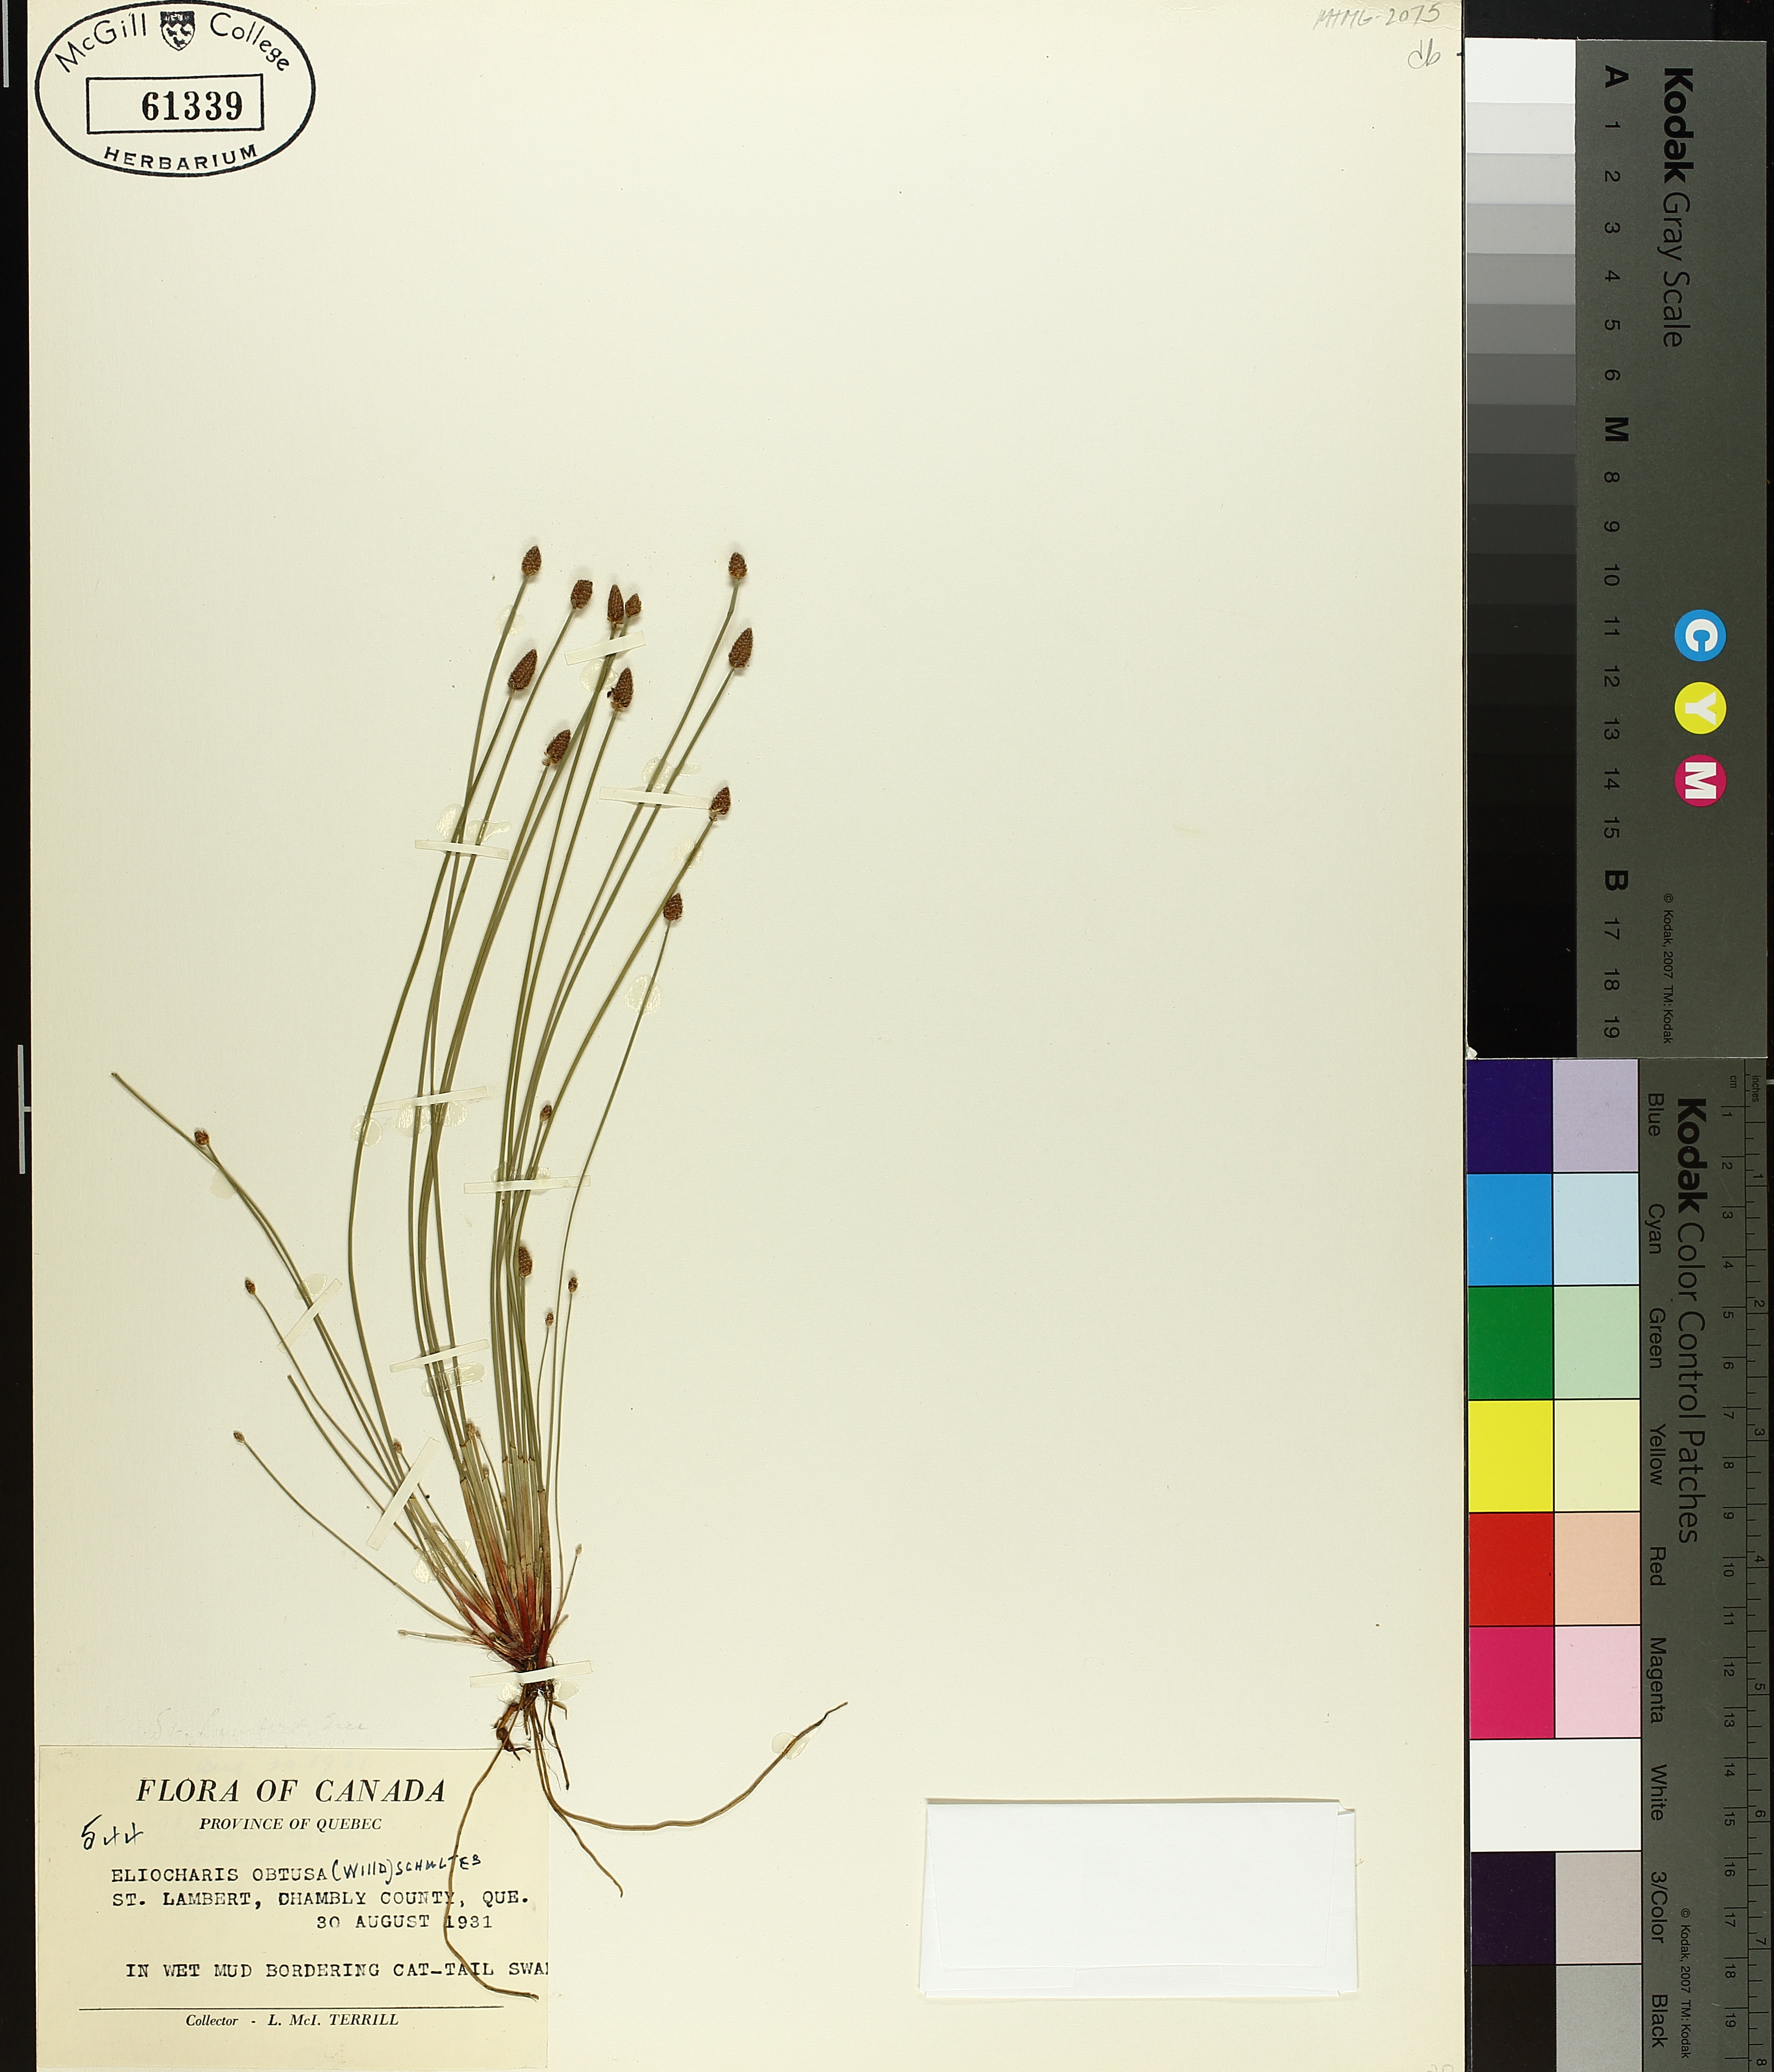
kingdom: Plantae
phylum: Tracheophyta
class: Liliopsida
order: Poales
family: Cyperaceae
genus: Eleocharis
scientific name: Eleocharis obtusa
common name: Blunt spikerush
